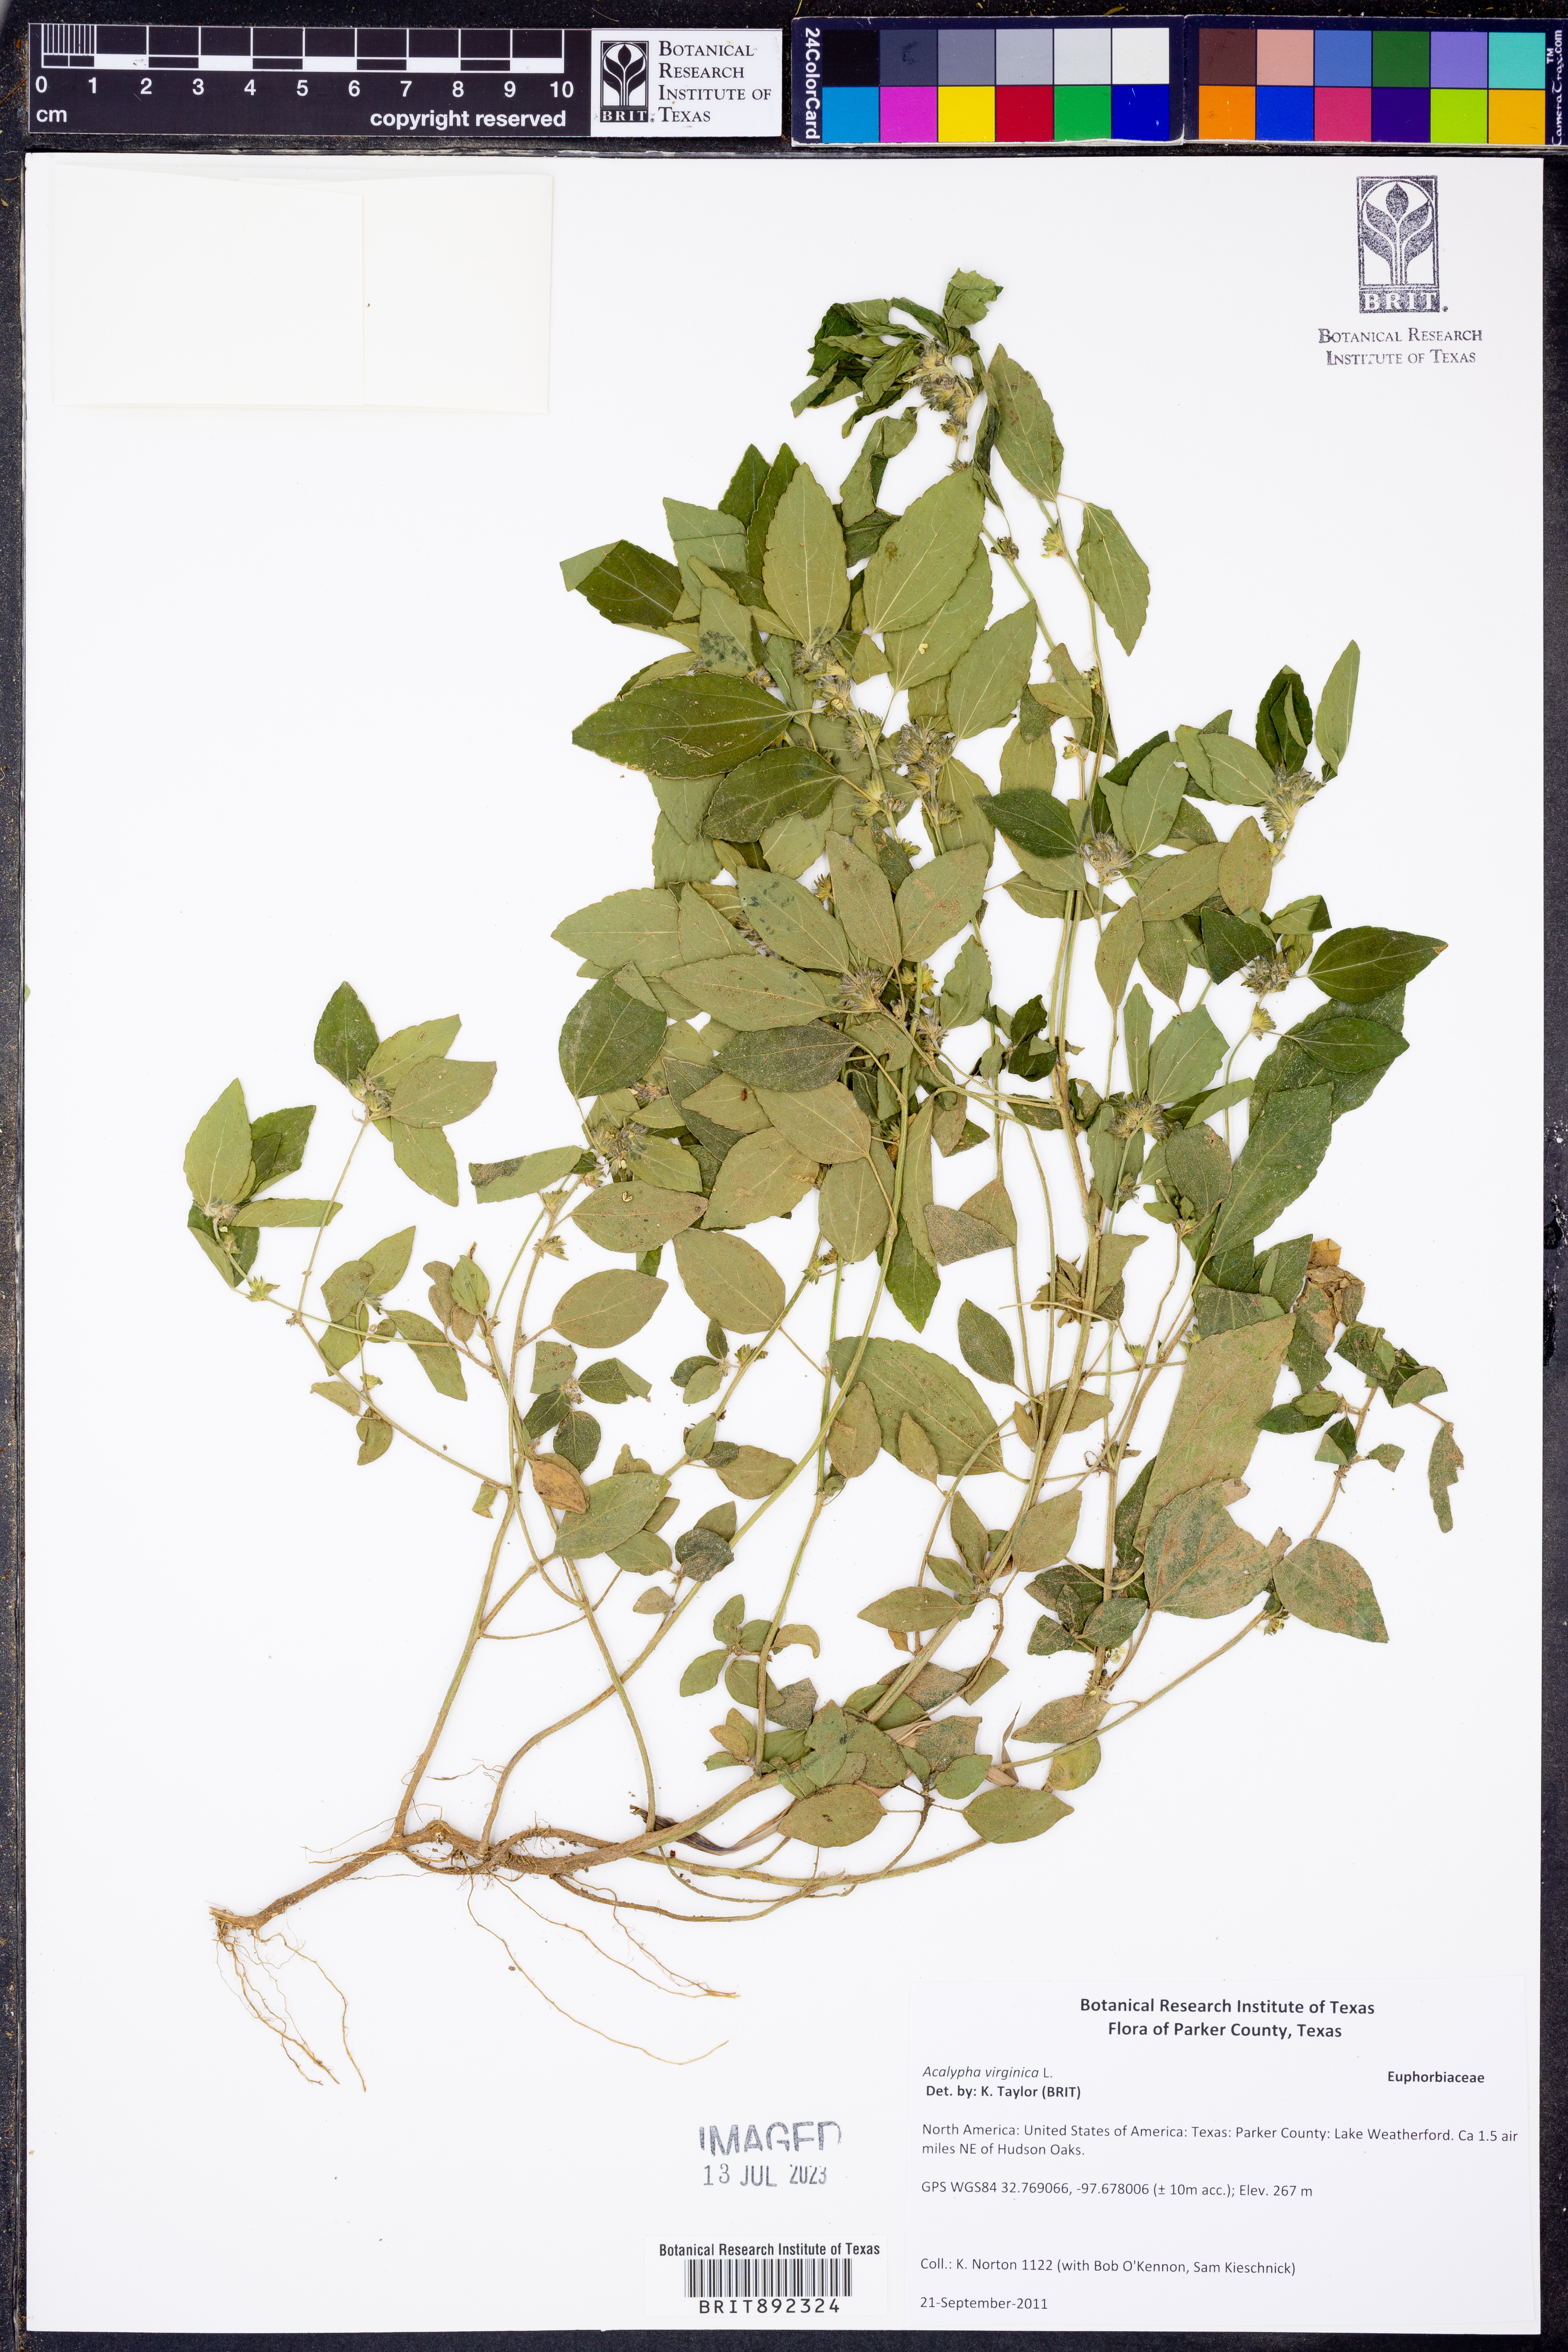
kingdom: Plantae
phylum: Tracheophyta
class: Magnoliopsida
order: Malpighiales
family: Euphorbiaceae
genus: Acalypha
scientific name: Acalypha virginica
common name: Virginia copperleaf
